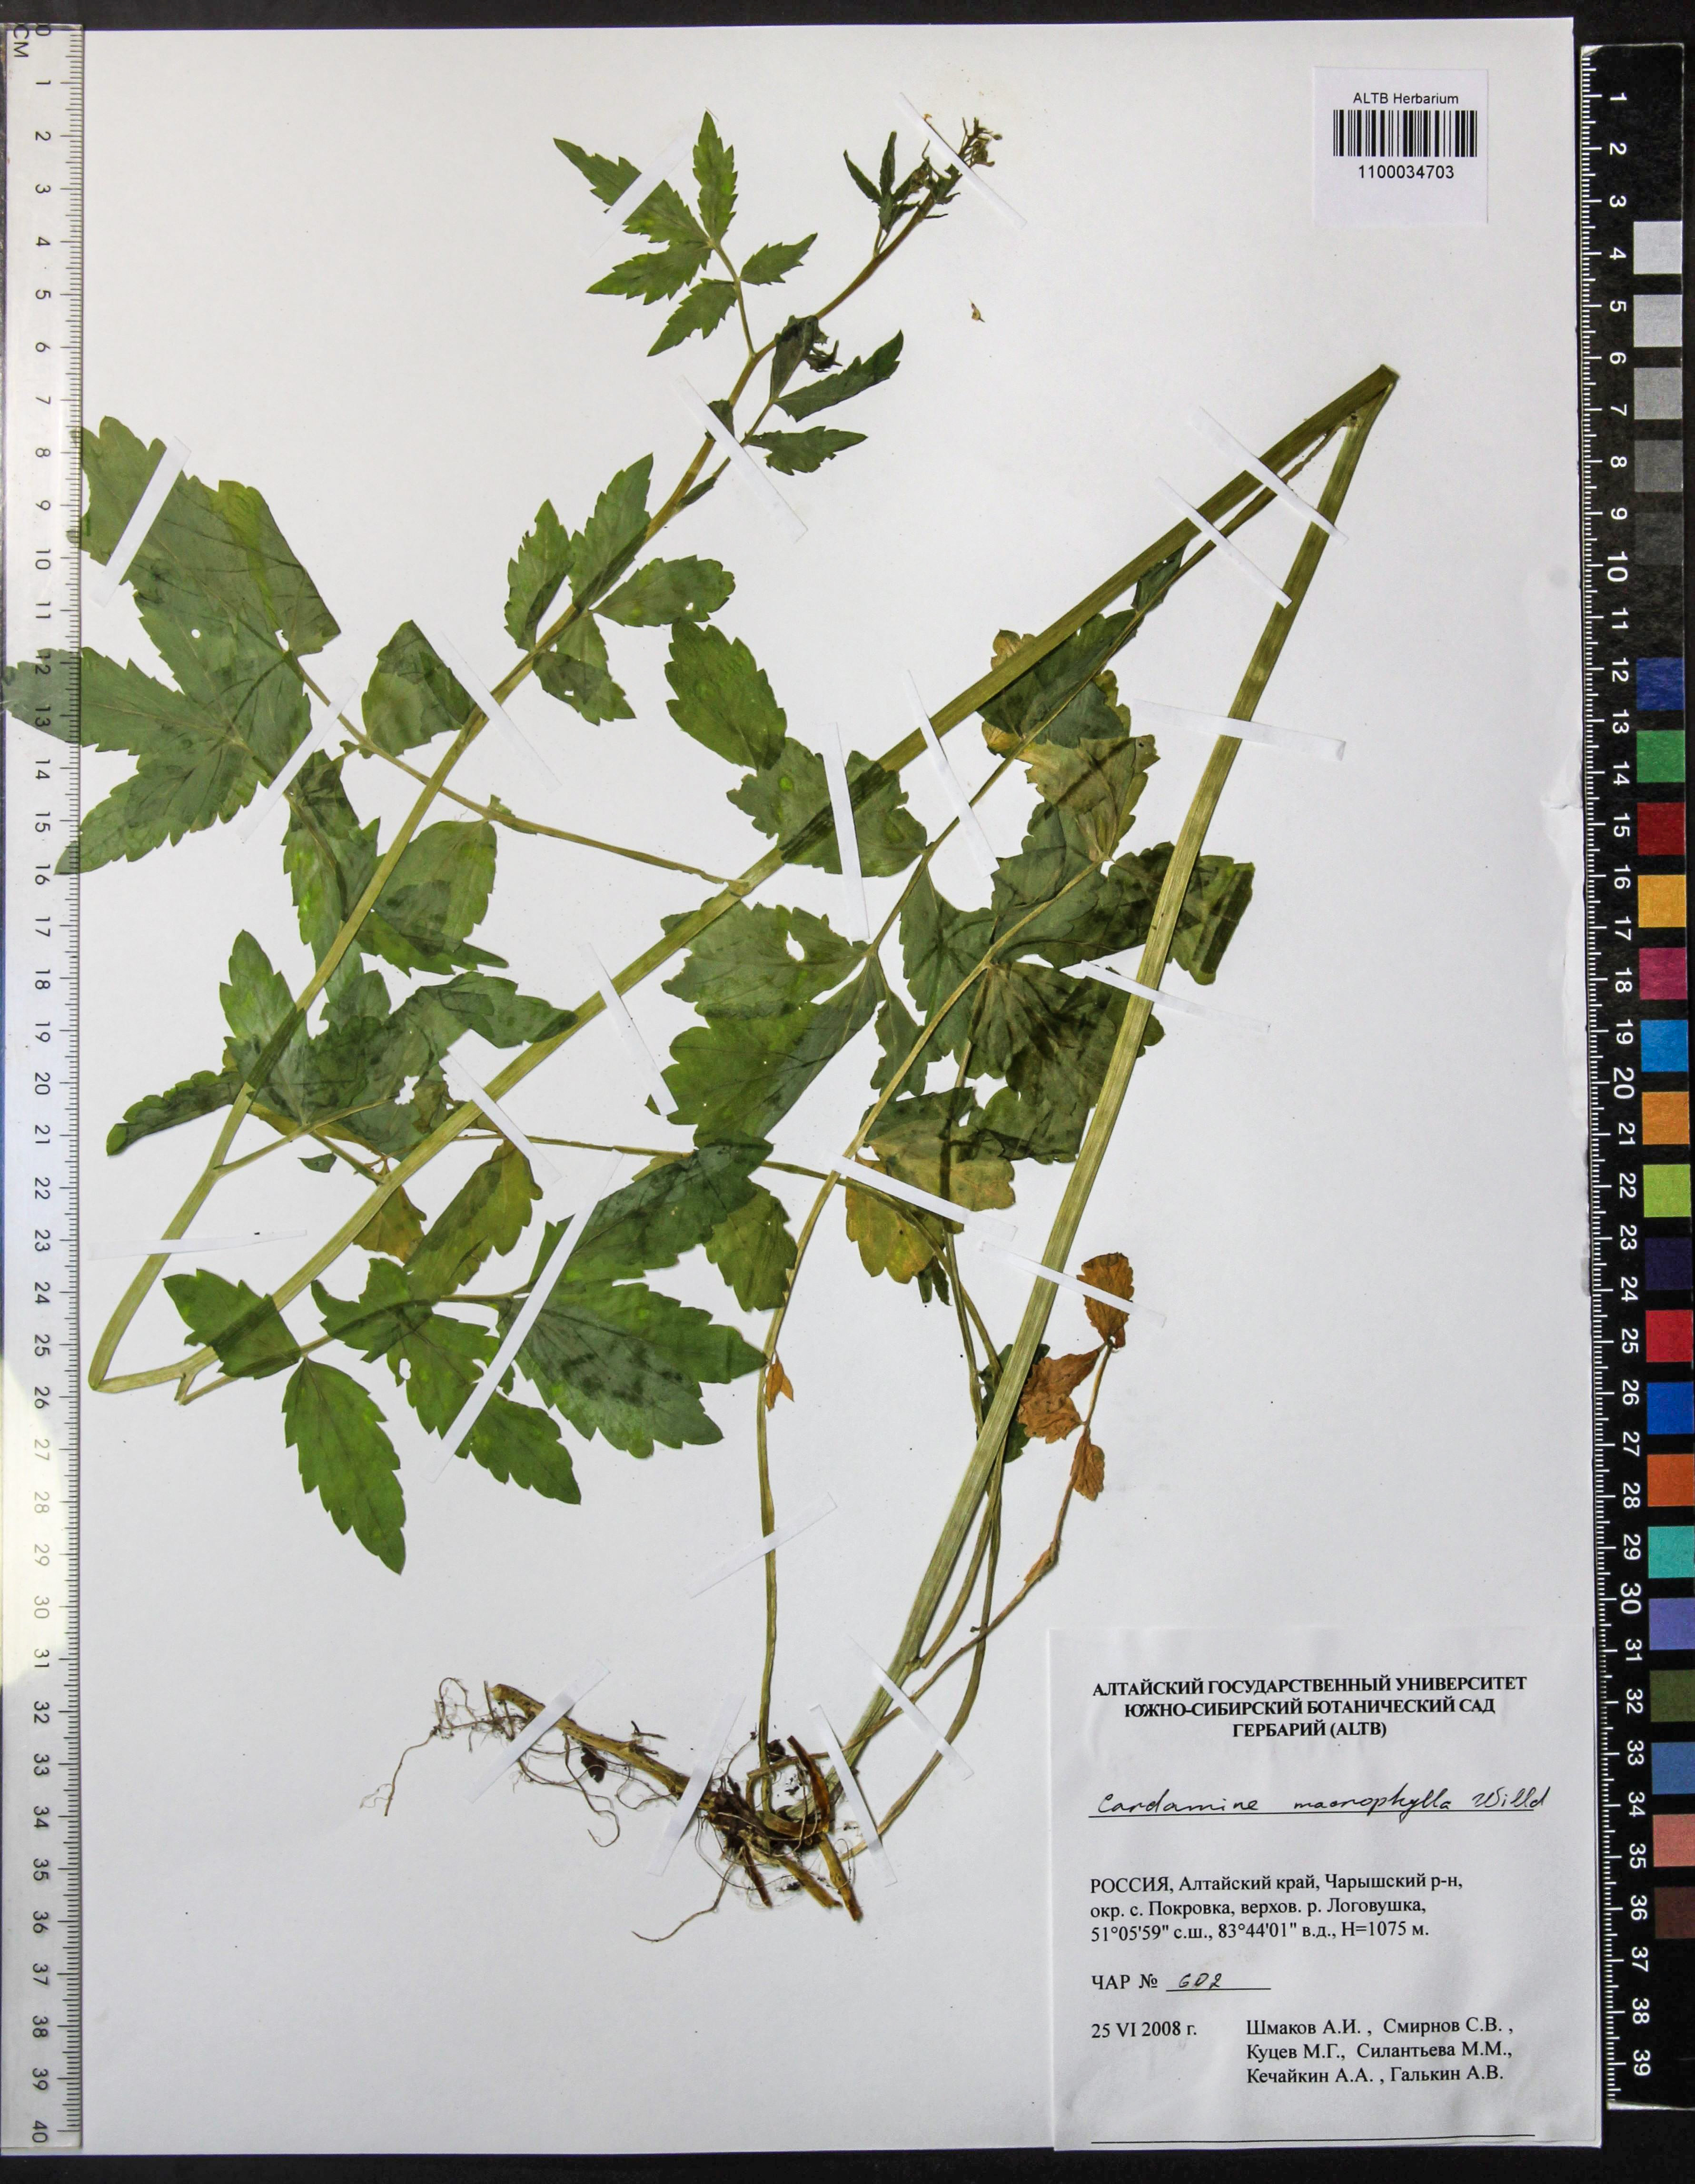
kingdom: Plantae
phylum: Tracheophyta
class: Magnoliopsida
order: Brassicales
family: Brassicaceae
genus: Cardamine
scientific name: Cardamine macrophylla
